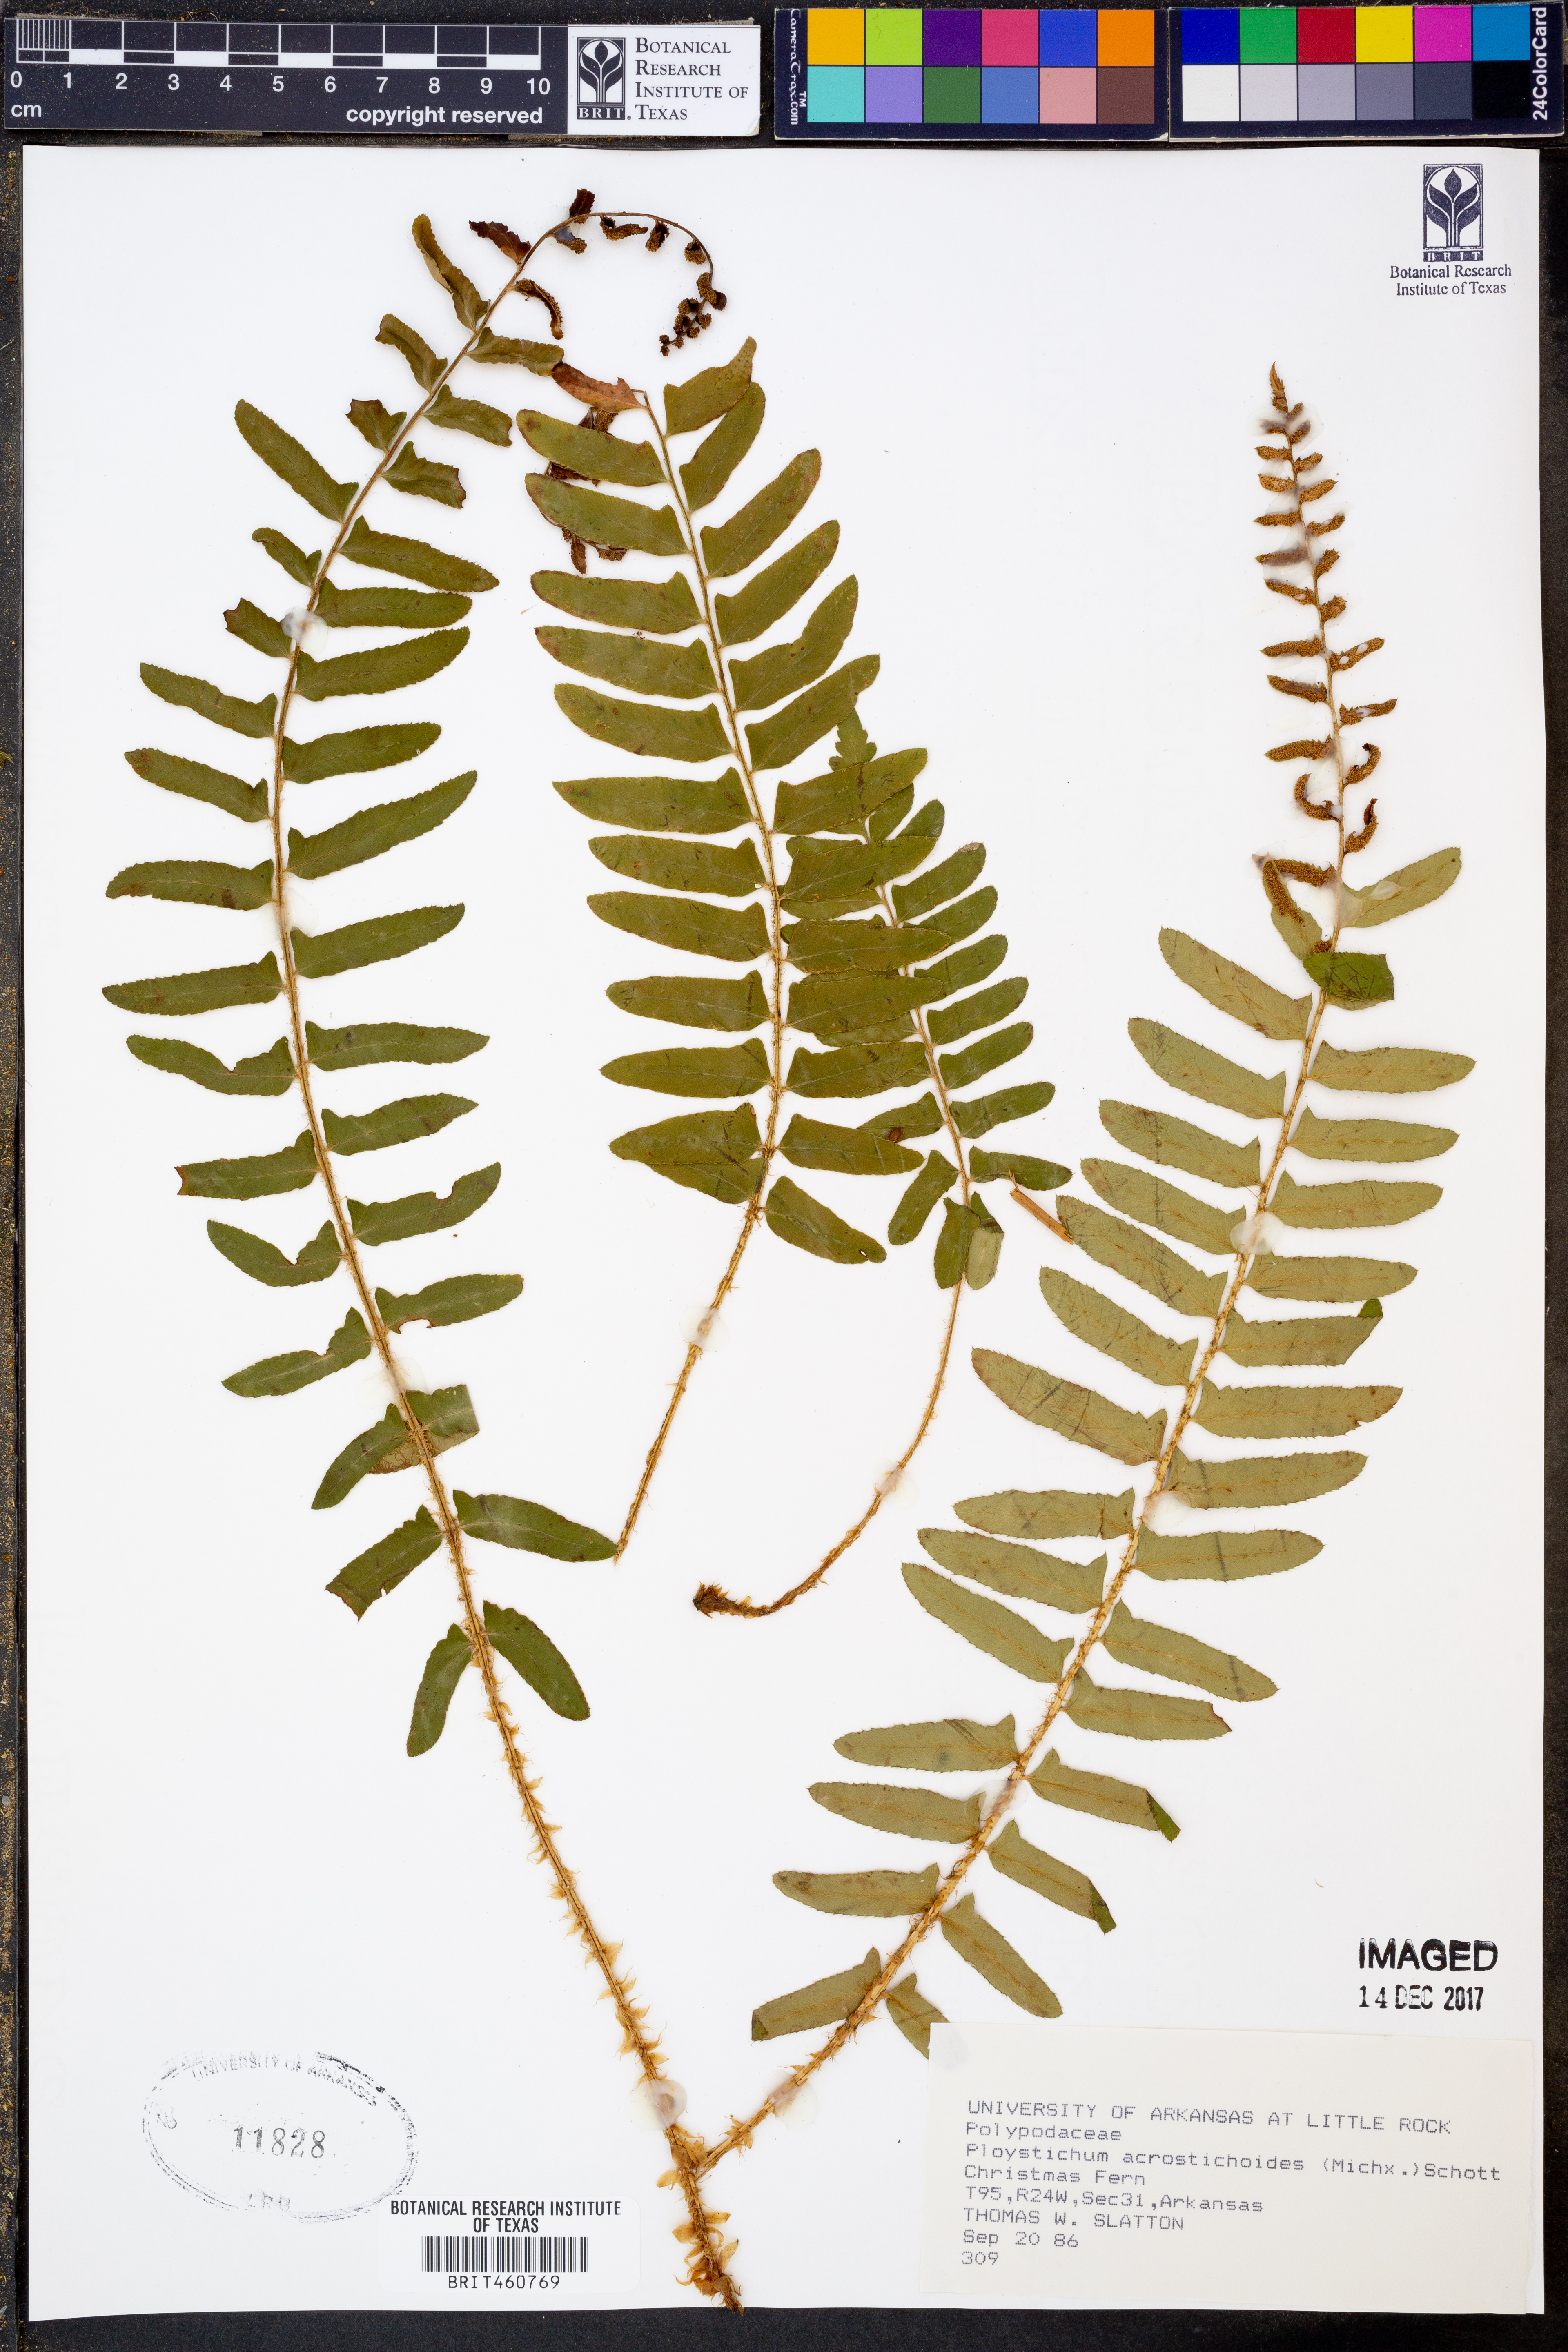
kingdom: Plantae
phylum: Tracheophyta
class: Polypodiopsida
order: Polypodiales
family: Dryopteridaceae
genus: Polystichum
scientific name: Polystichum acrostichoides
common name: Christmas fern
